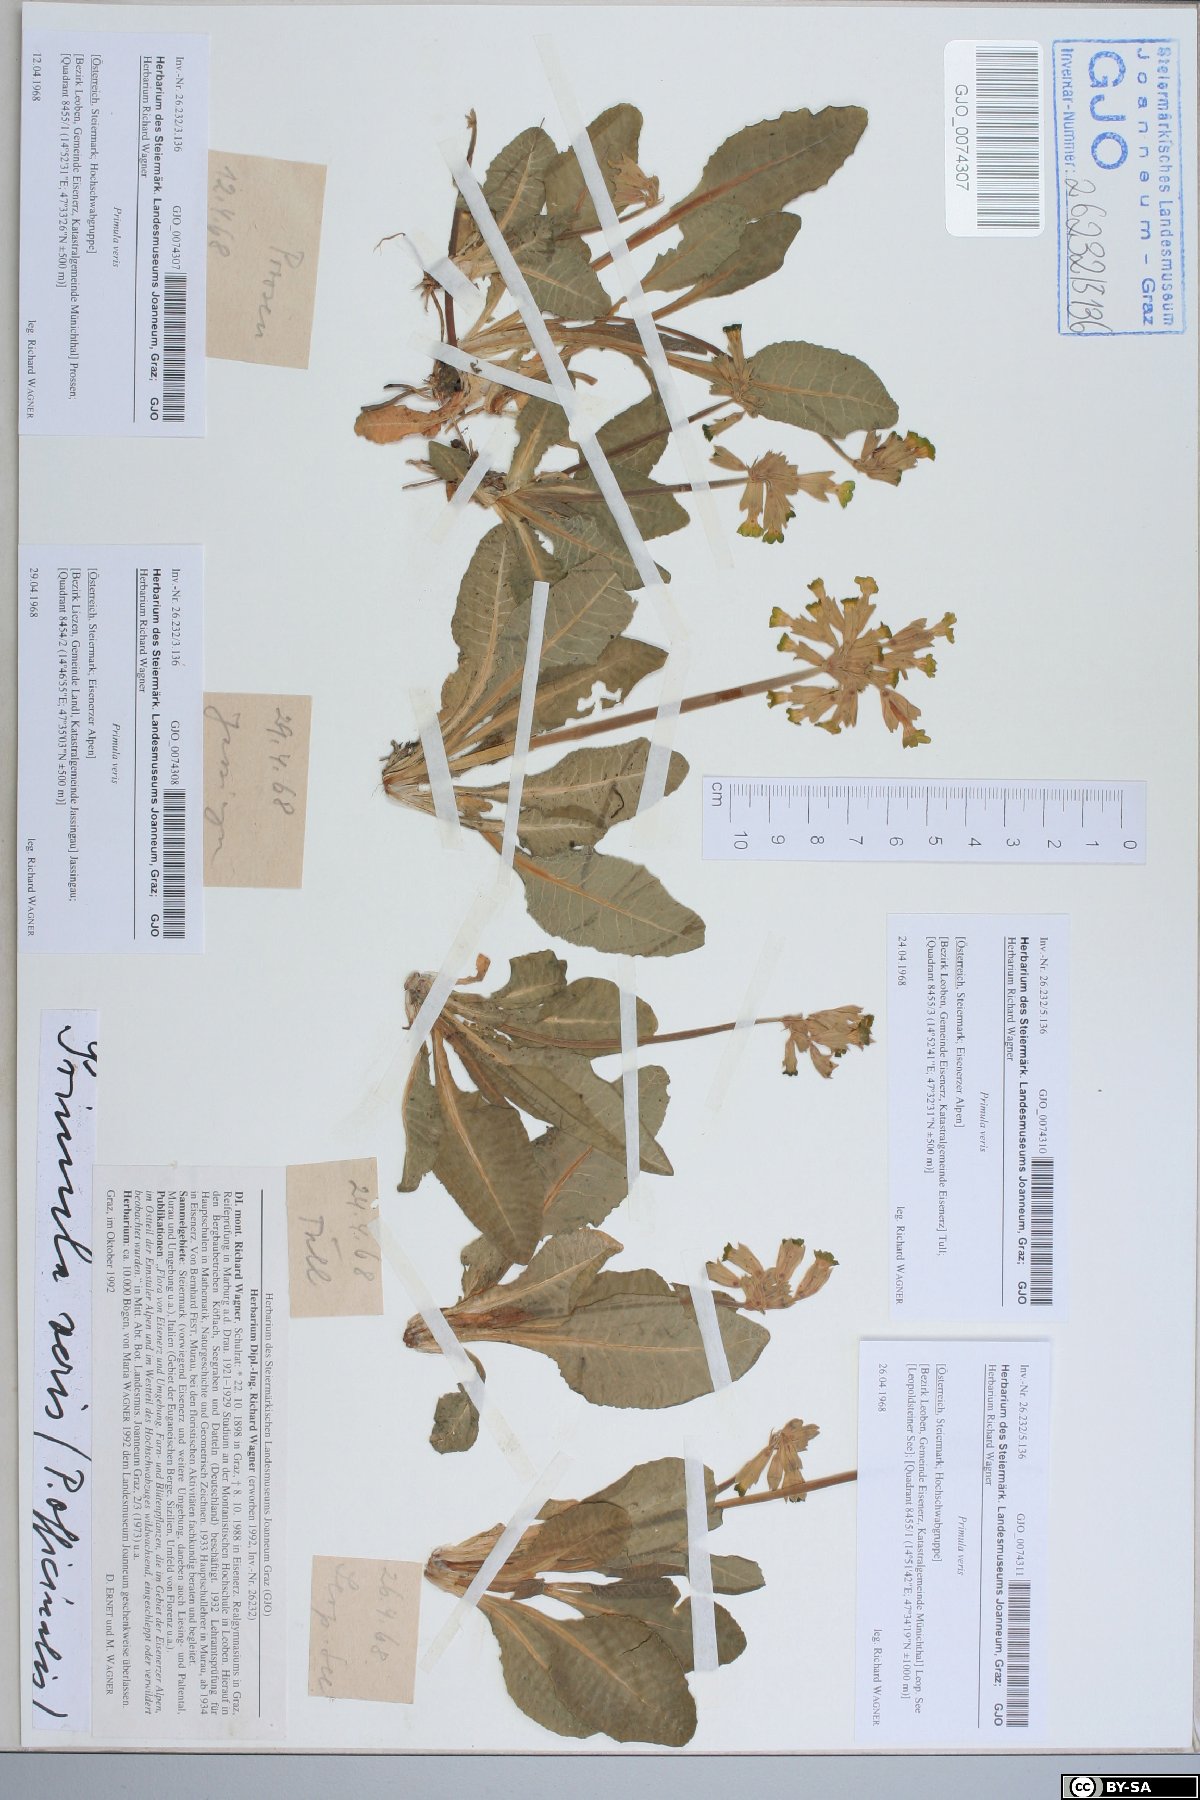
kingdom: Plantae
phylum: Tracheophyta
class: Magnoliopsida
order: Ericales
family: Primulaceae
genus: Primula
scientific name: Primula veris
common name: Cowslip
